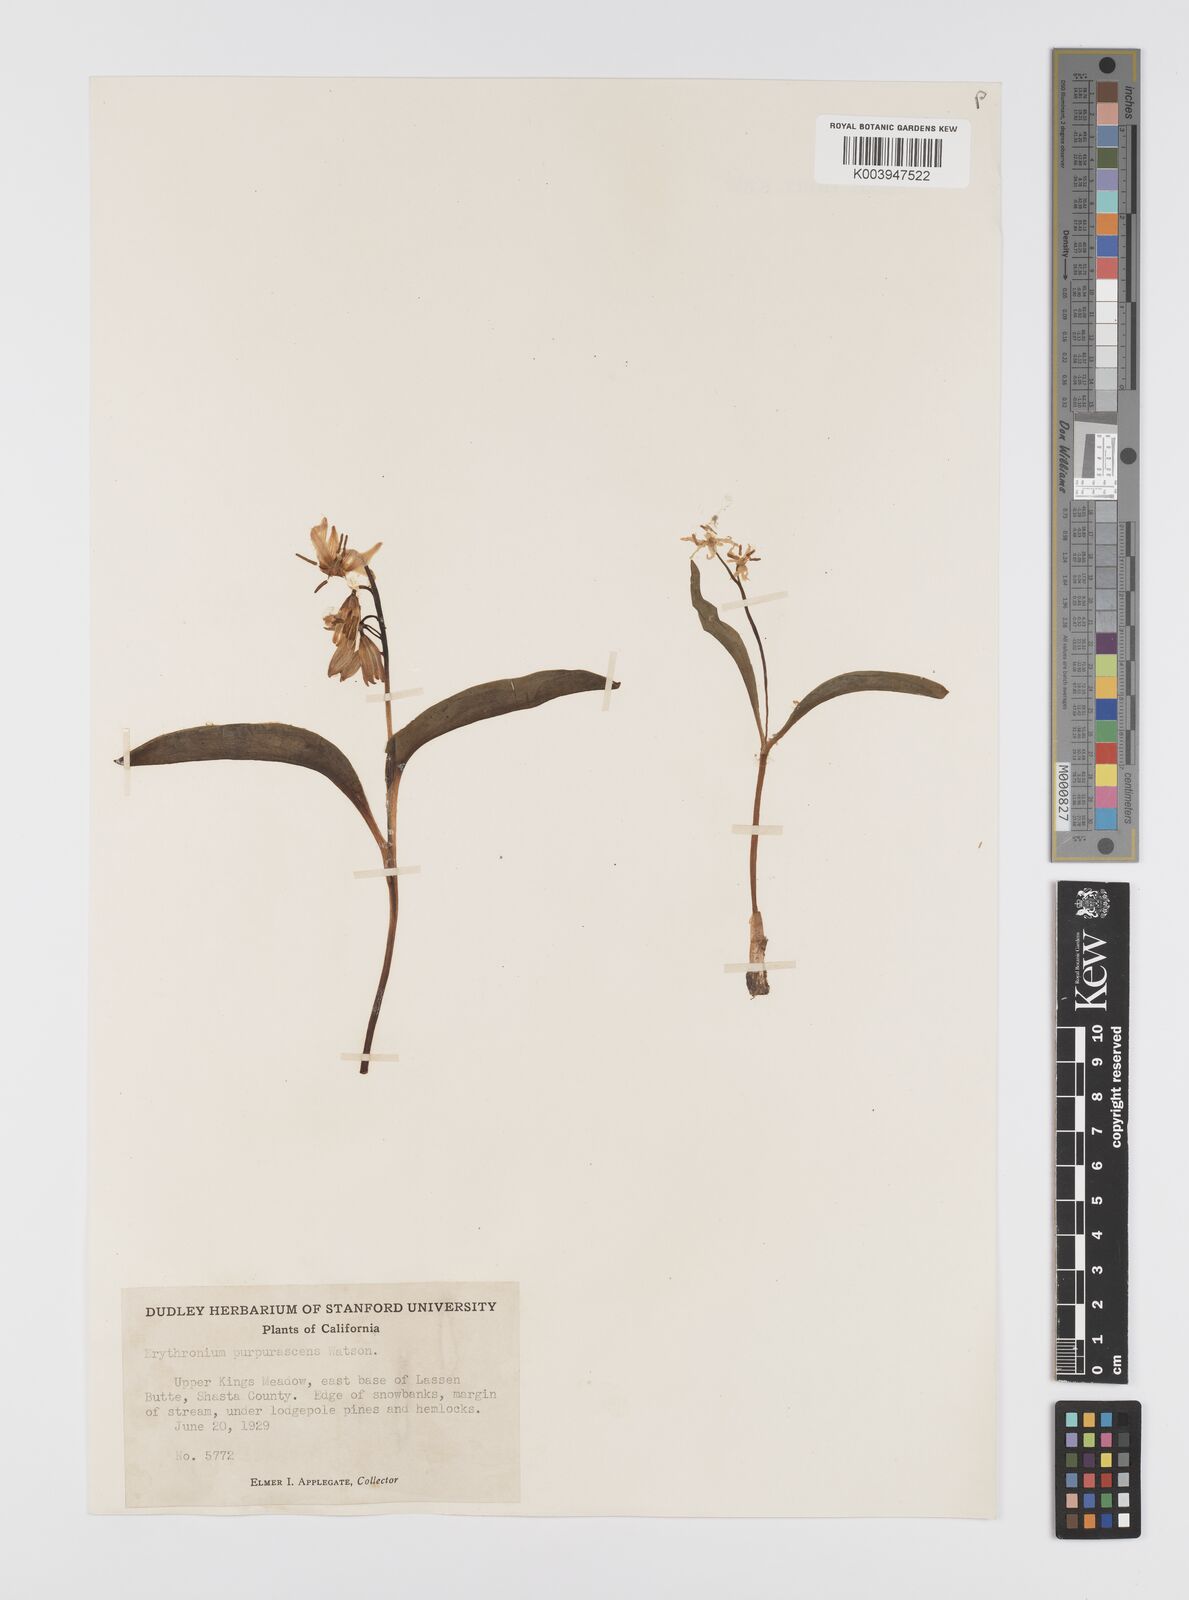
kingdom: Plantae
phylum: Tracheophyta
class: Liliopsida
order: Liliales
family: Liliaceae
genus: Erythronium
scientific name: Erythronium purpurascens
